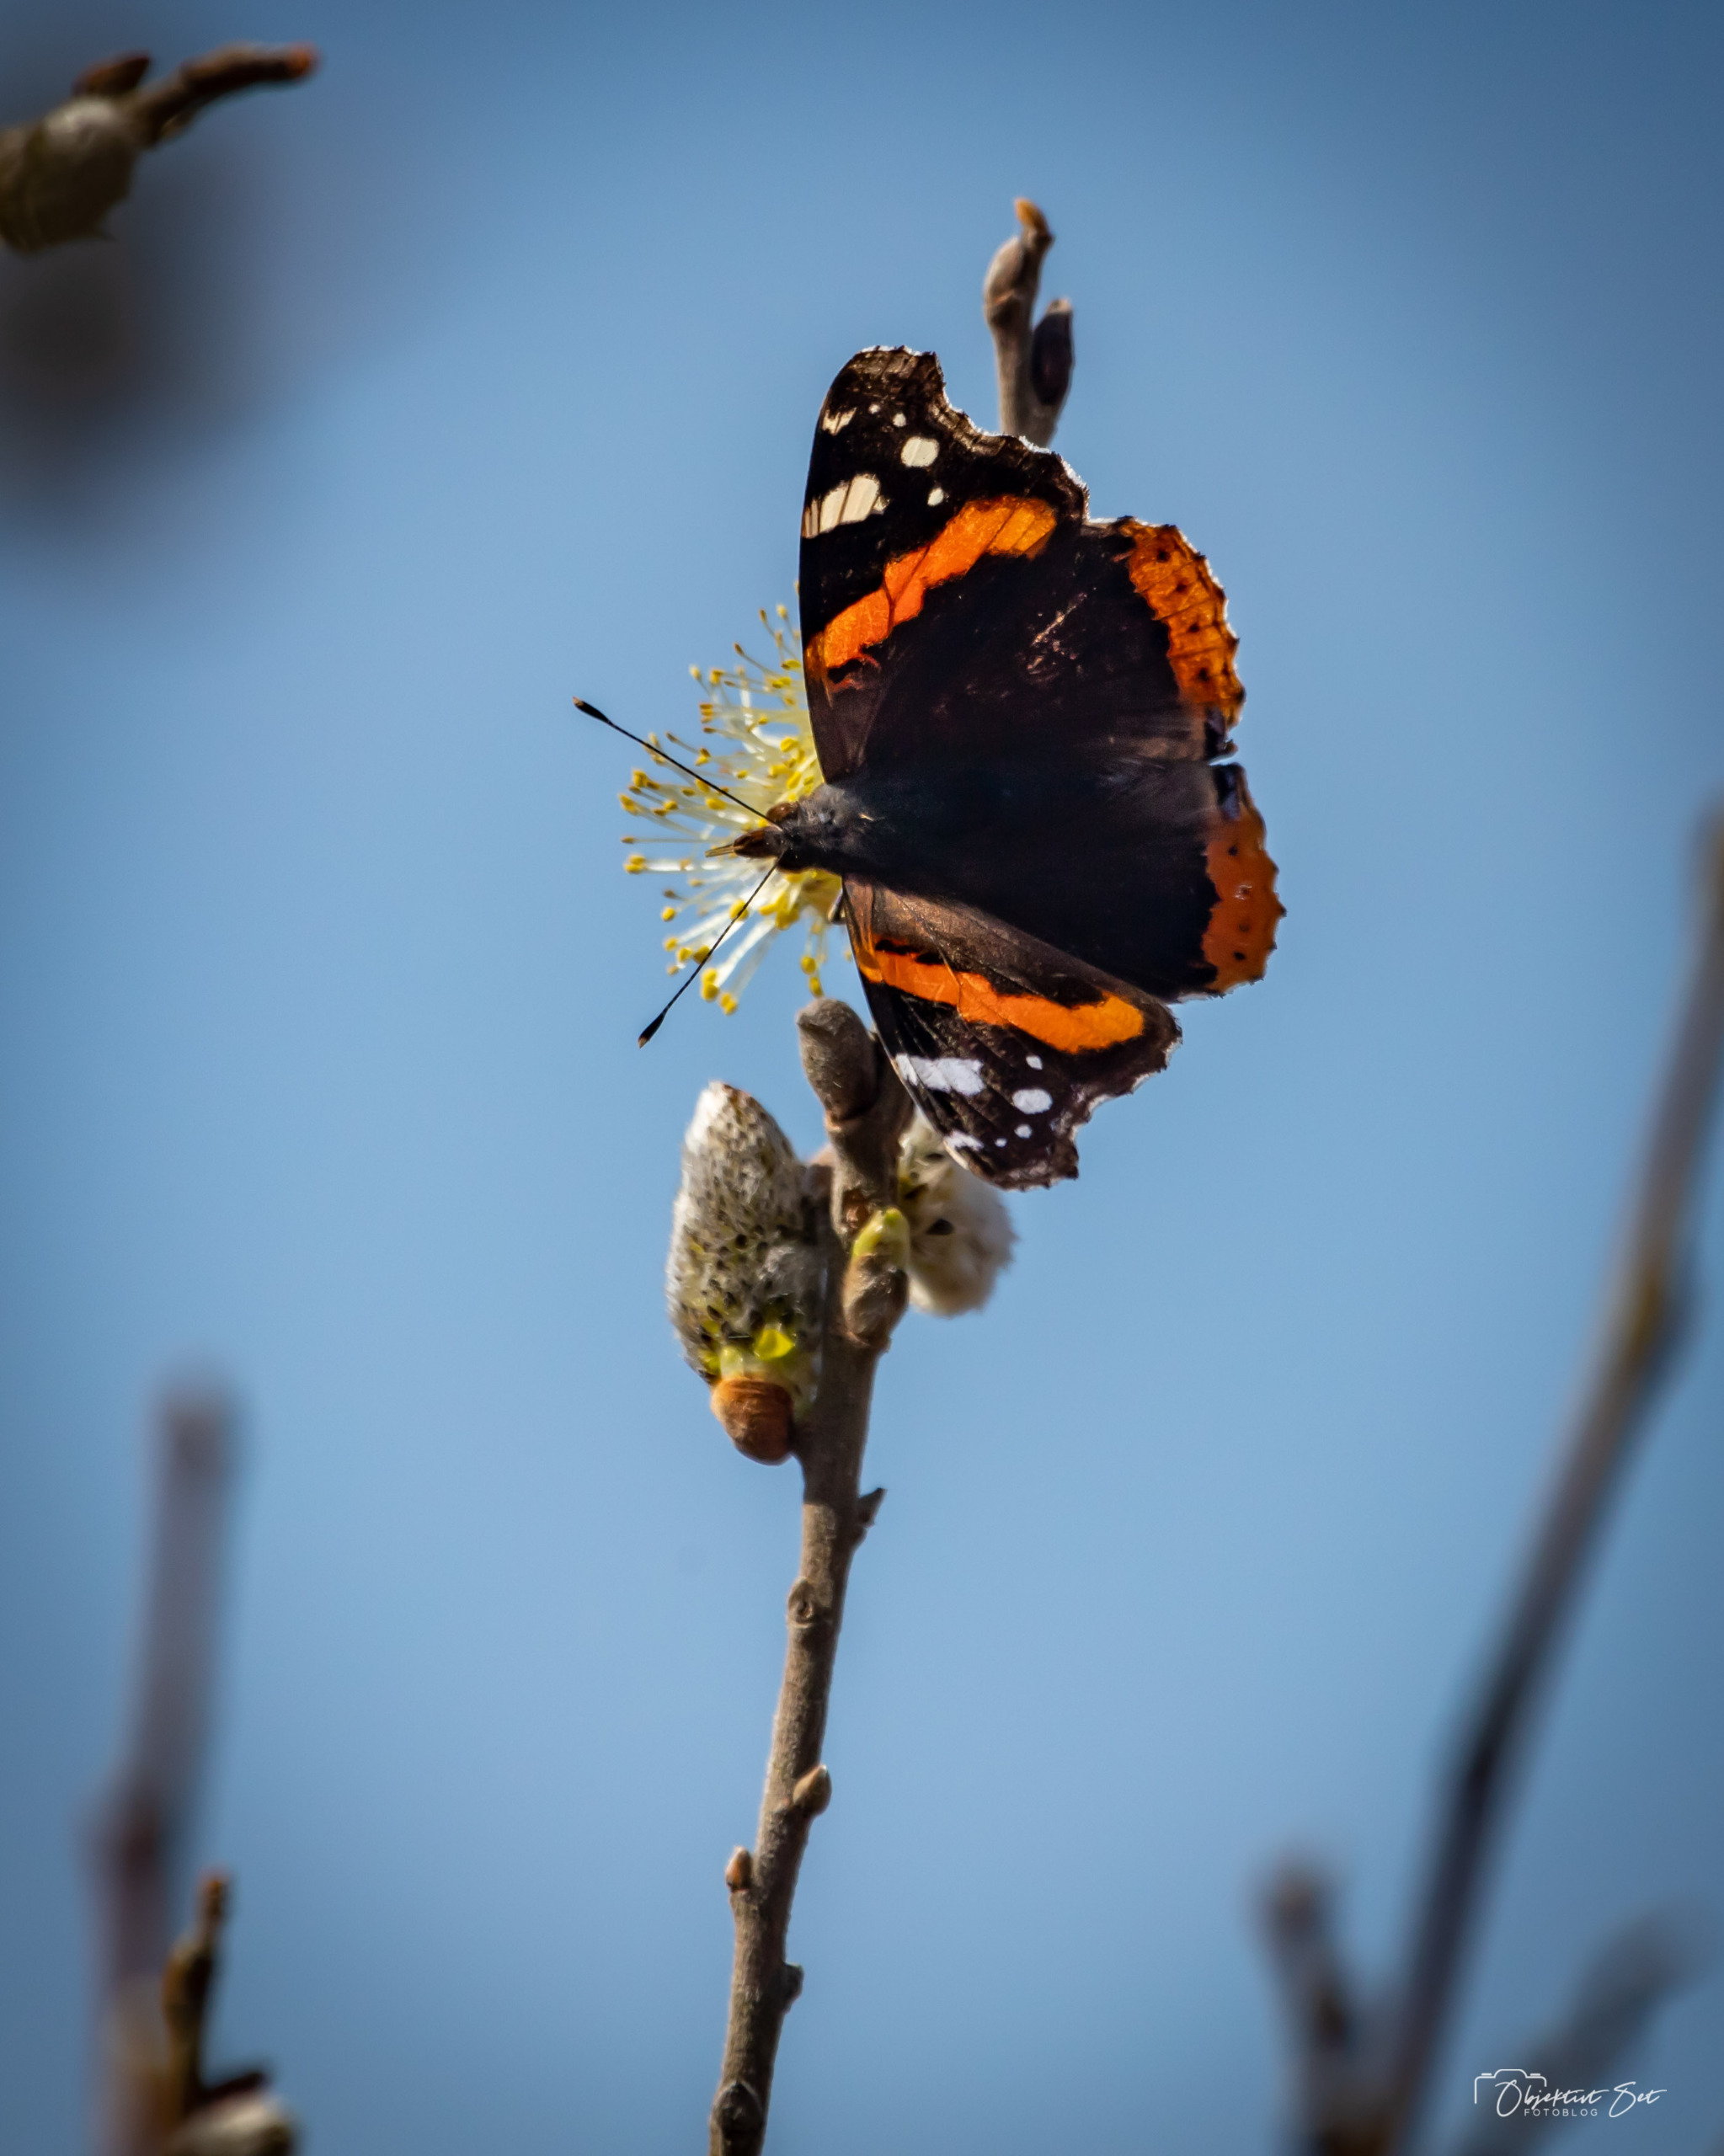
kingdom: Animalia
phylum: Arthropoda
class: Insecta
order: Lepidoptera
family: Nymphalidae
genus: Vanessa
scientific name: Vanessa atalanta
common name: Admiral
